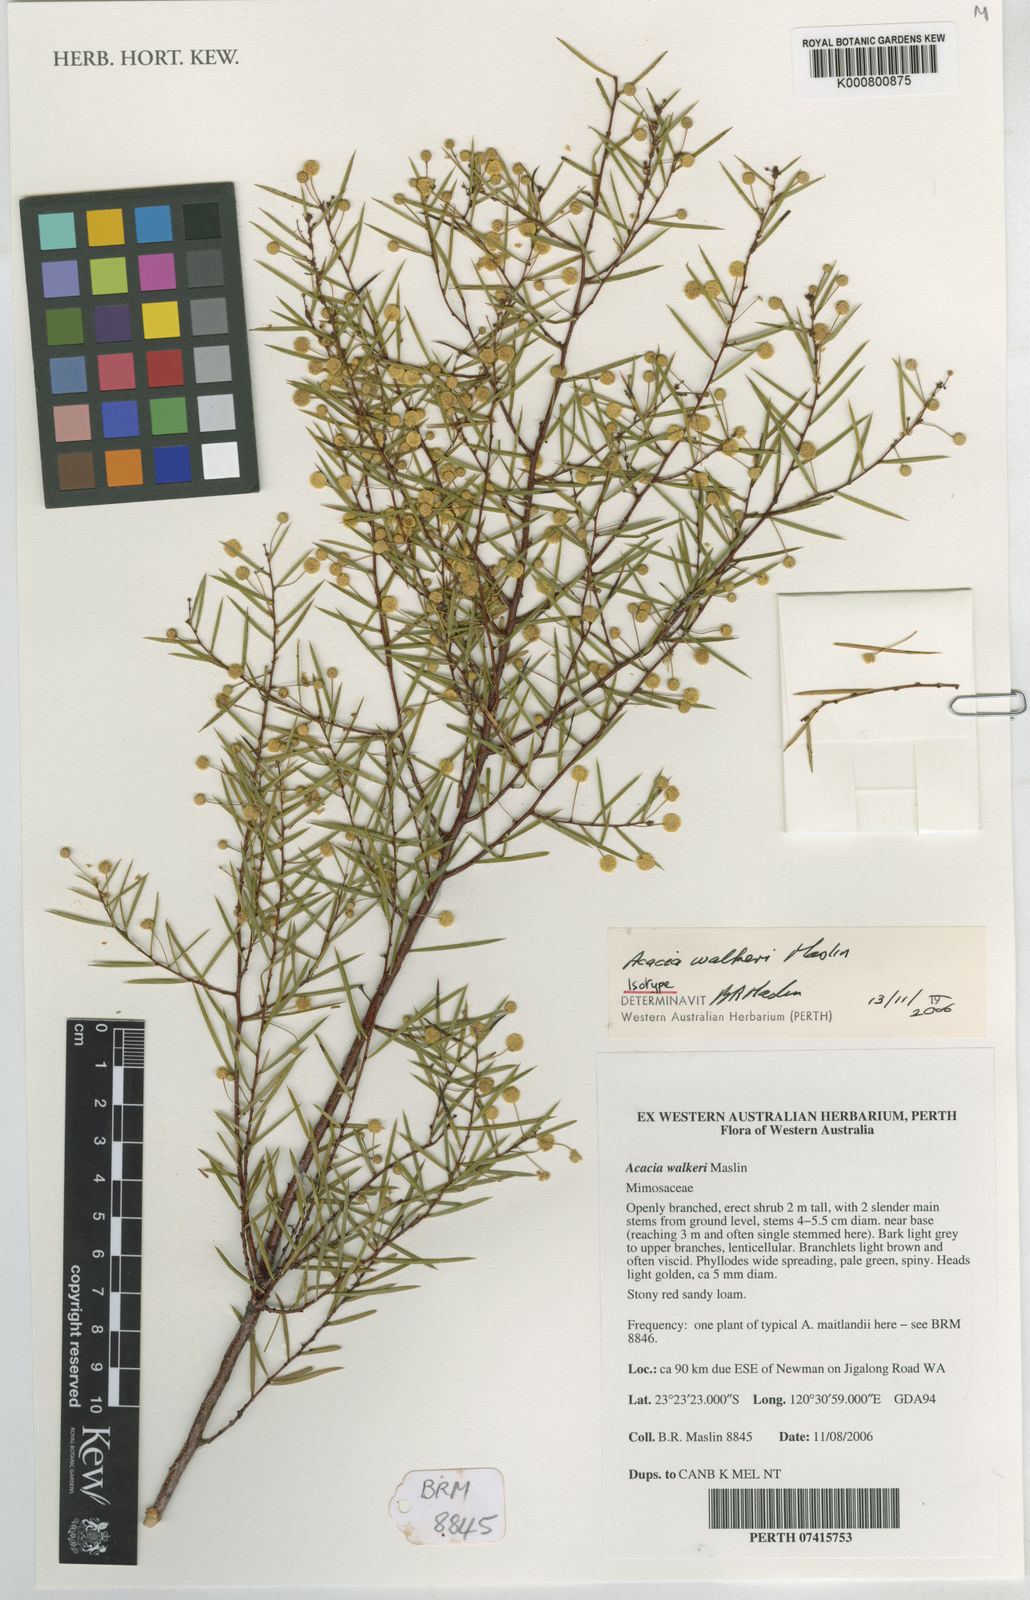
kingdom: Plantae
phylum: Tracheophyta
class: Magnoliopsida
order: Fabales
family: Fabaceae
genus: Acacia
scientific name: Acacia walkeri
